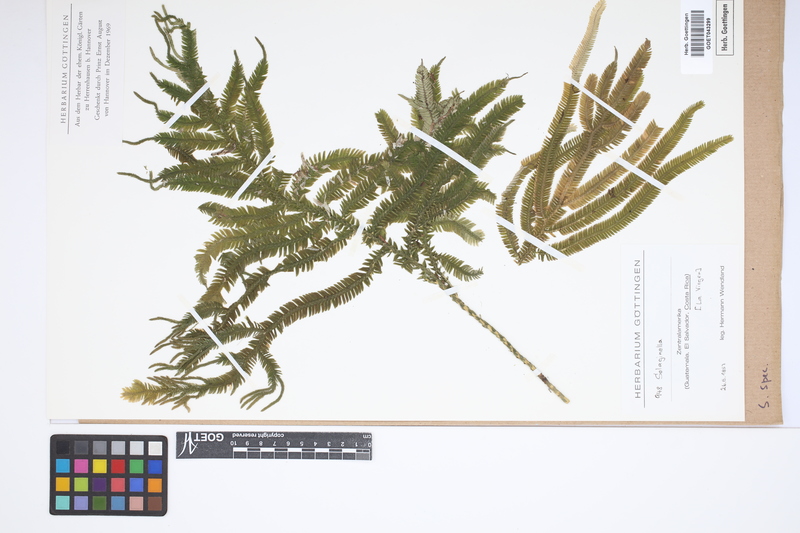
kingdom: Plantae
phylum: Tracheophyta
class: Lycopodiopsida
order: Selaginellales
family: Selaginellaceae
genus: Selaginella
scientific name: Selaginella
